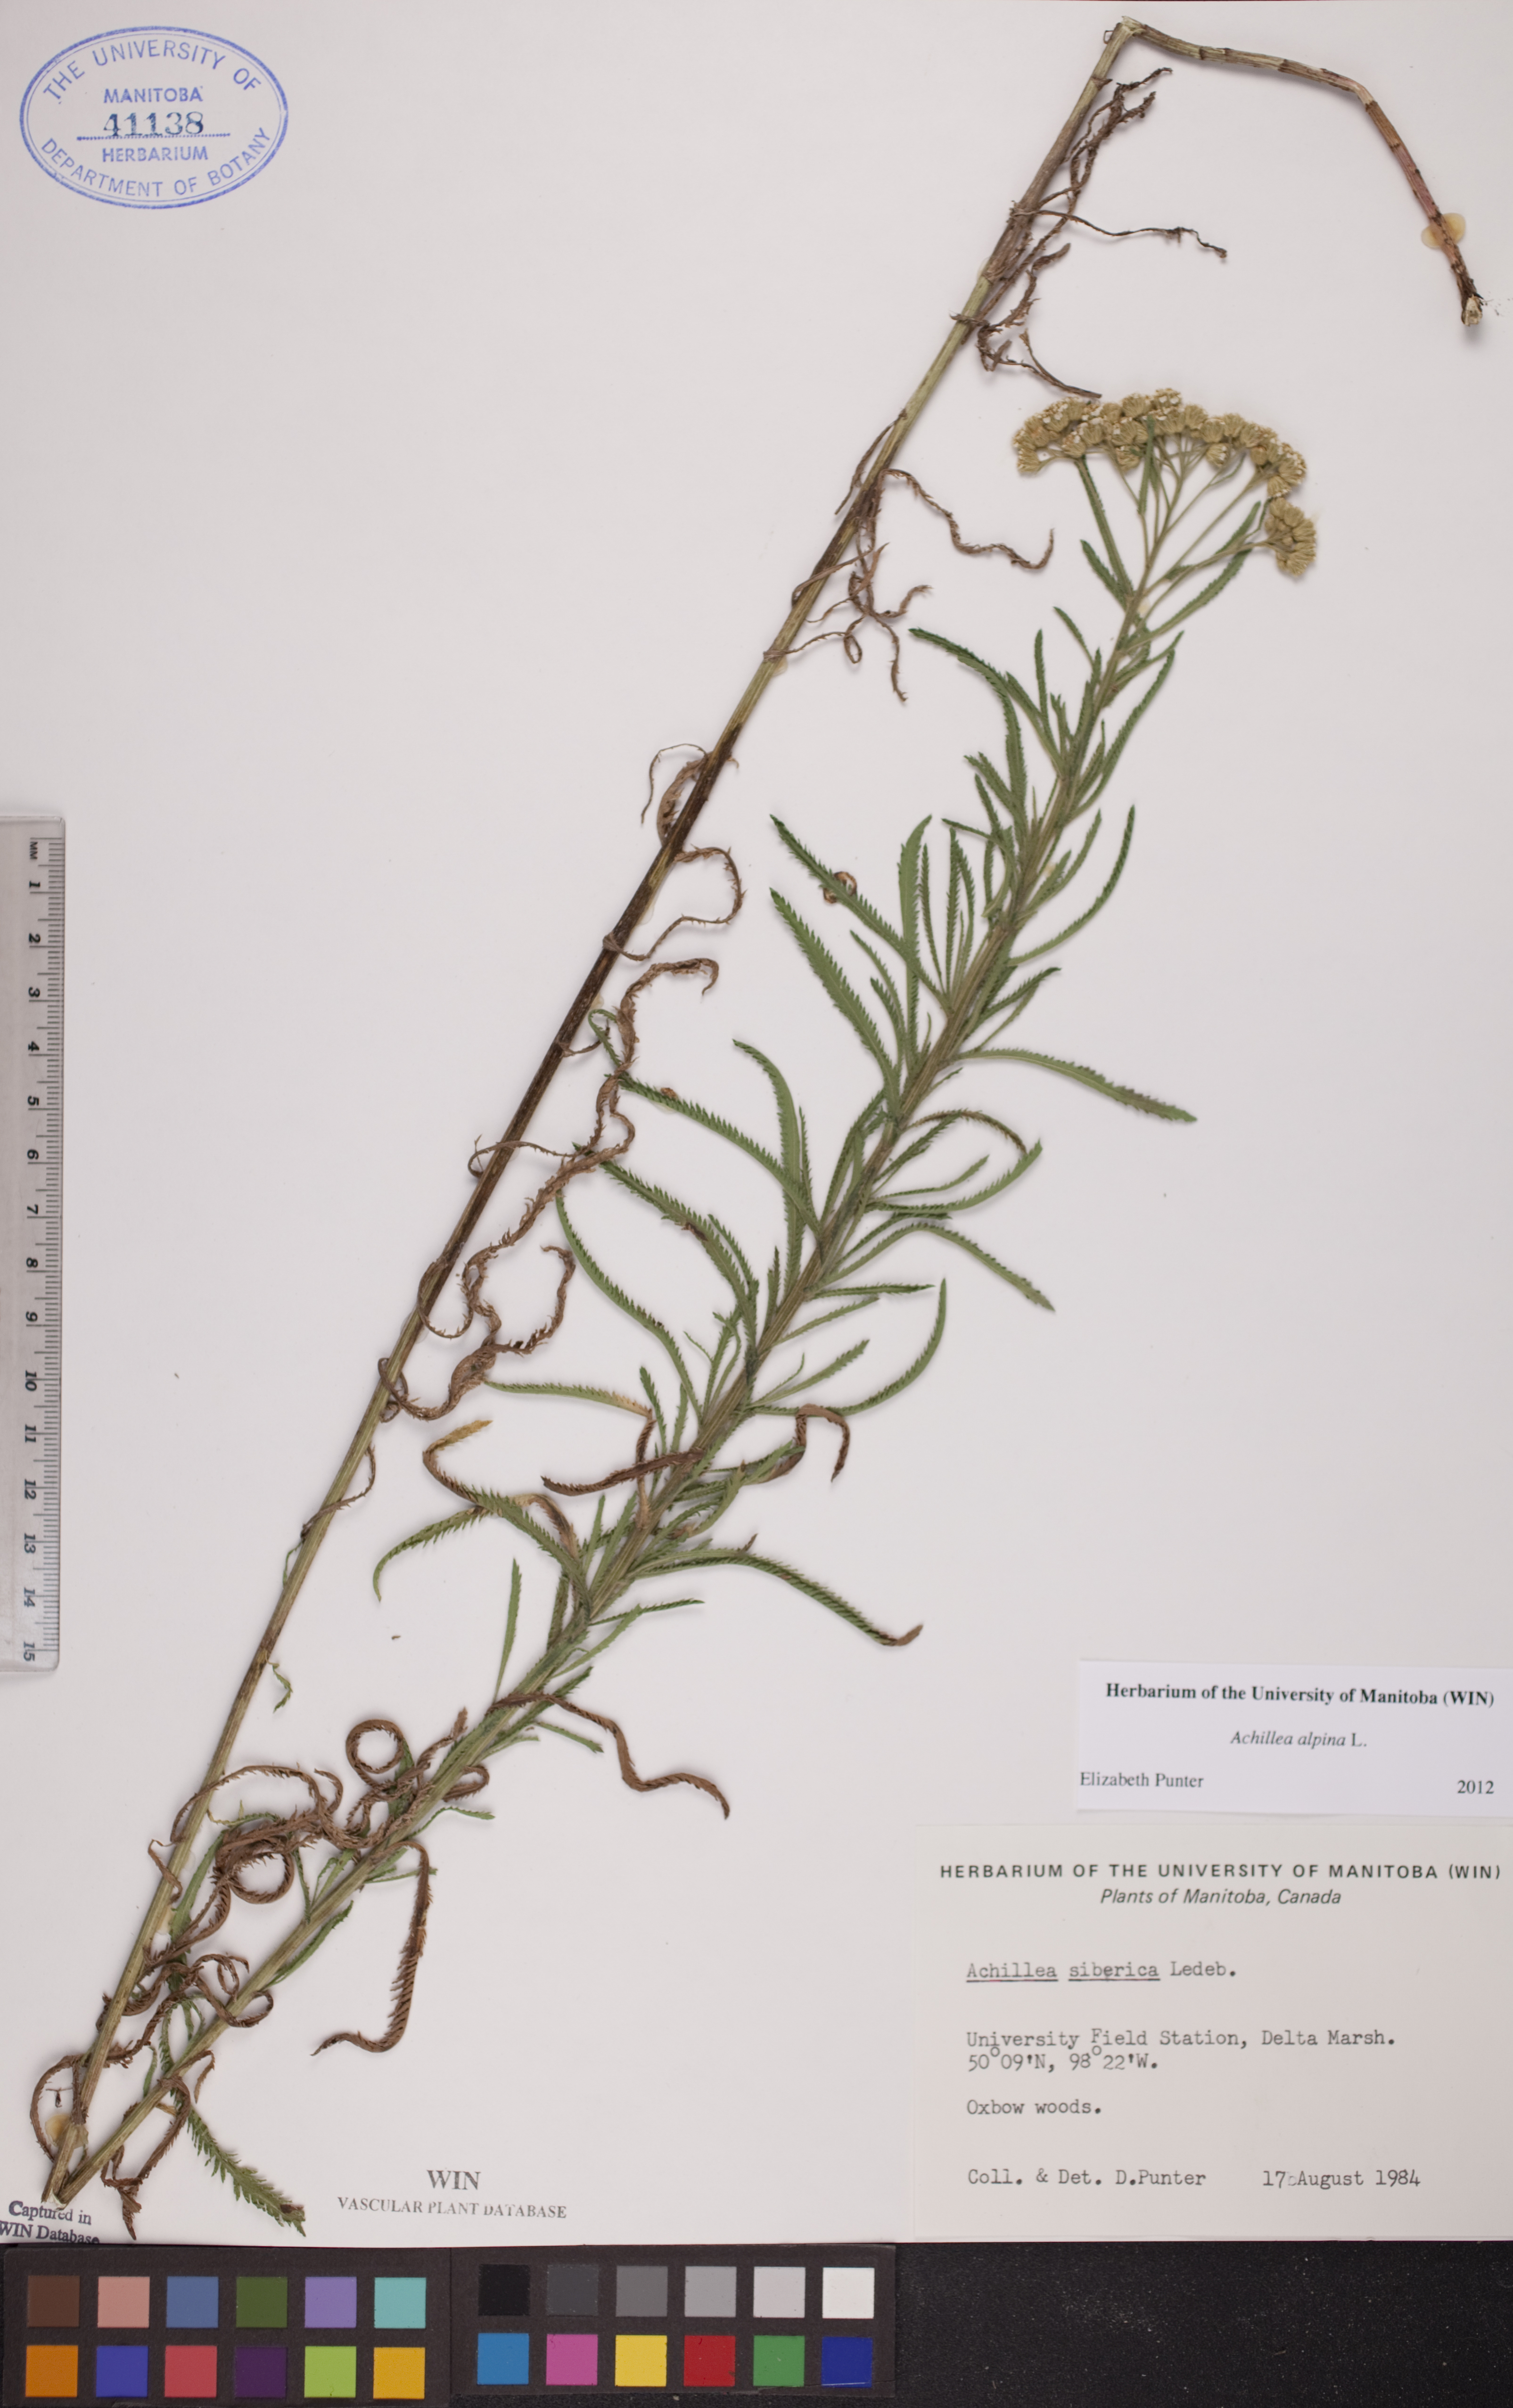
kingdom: Plantae
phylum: Tracheophyta
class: Magnoliopsida
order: Asterales
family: Asteraceae
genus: Achillea
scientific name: Achillea alpina
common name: Siberian yarrow
